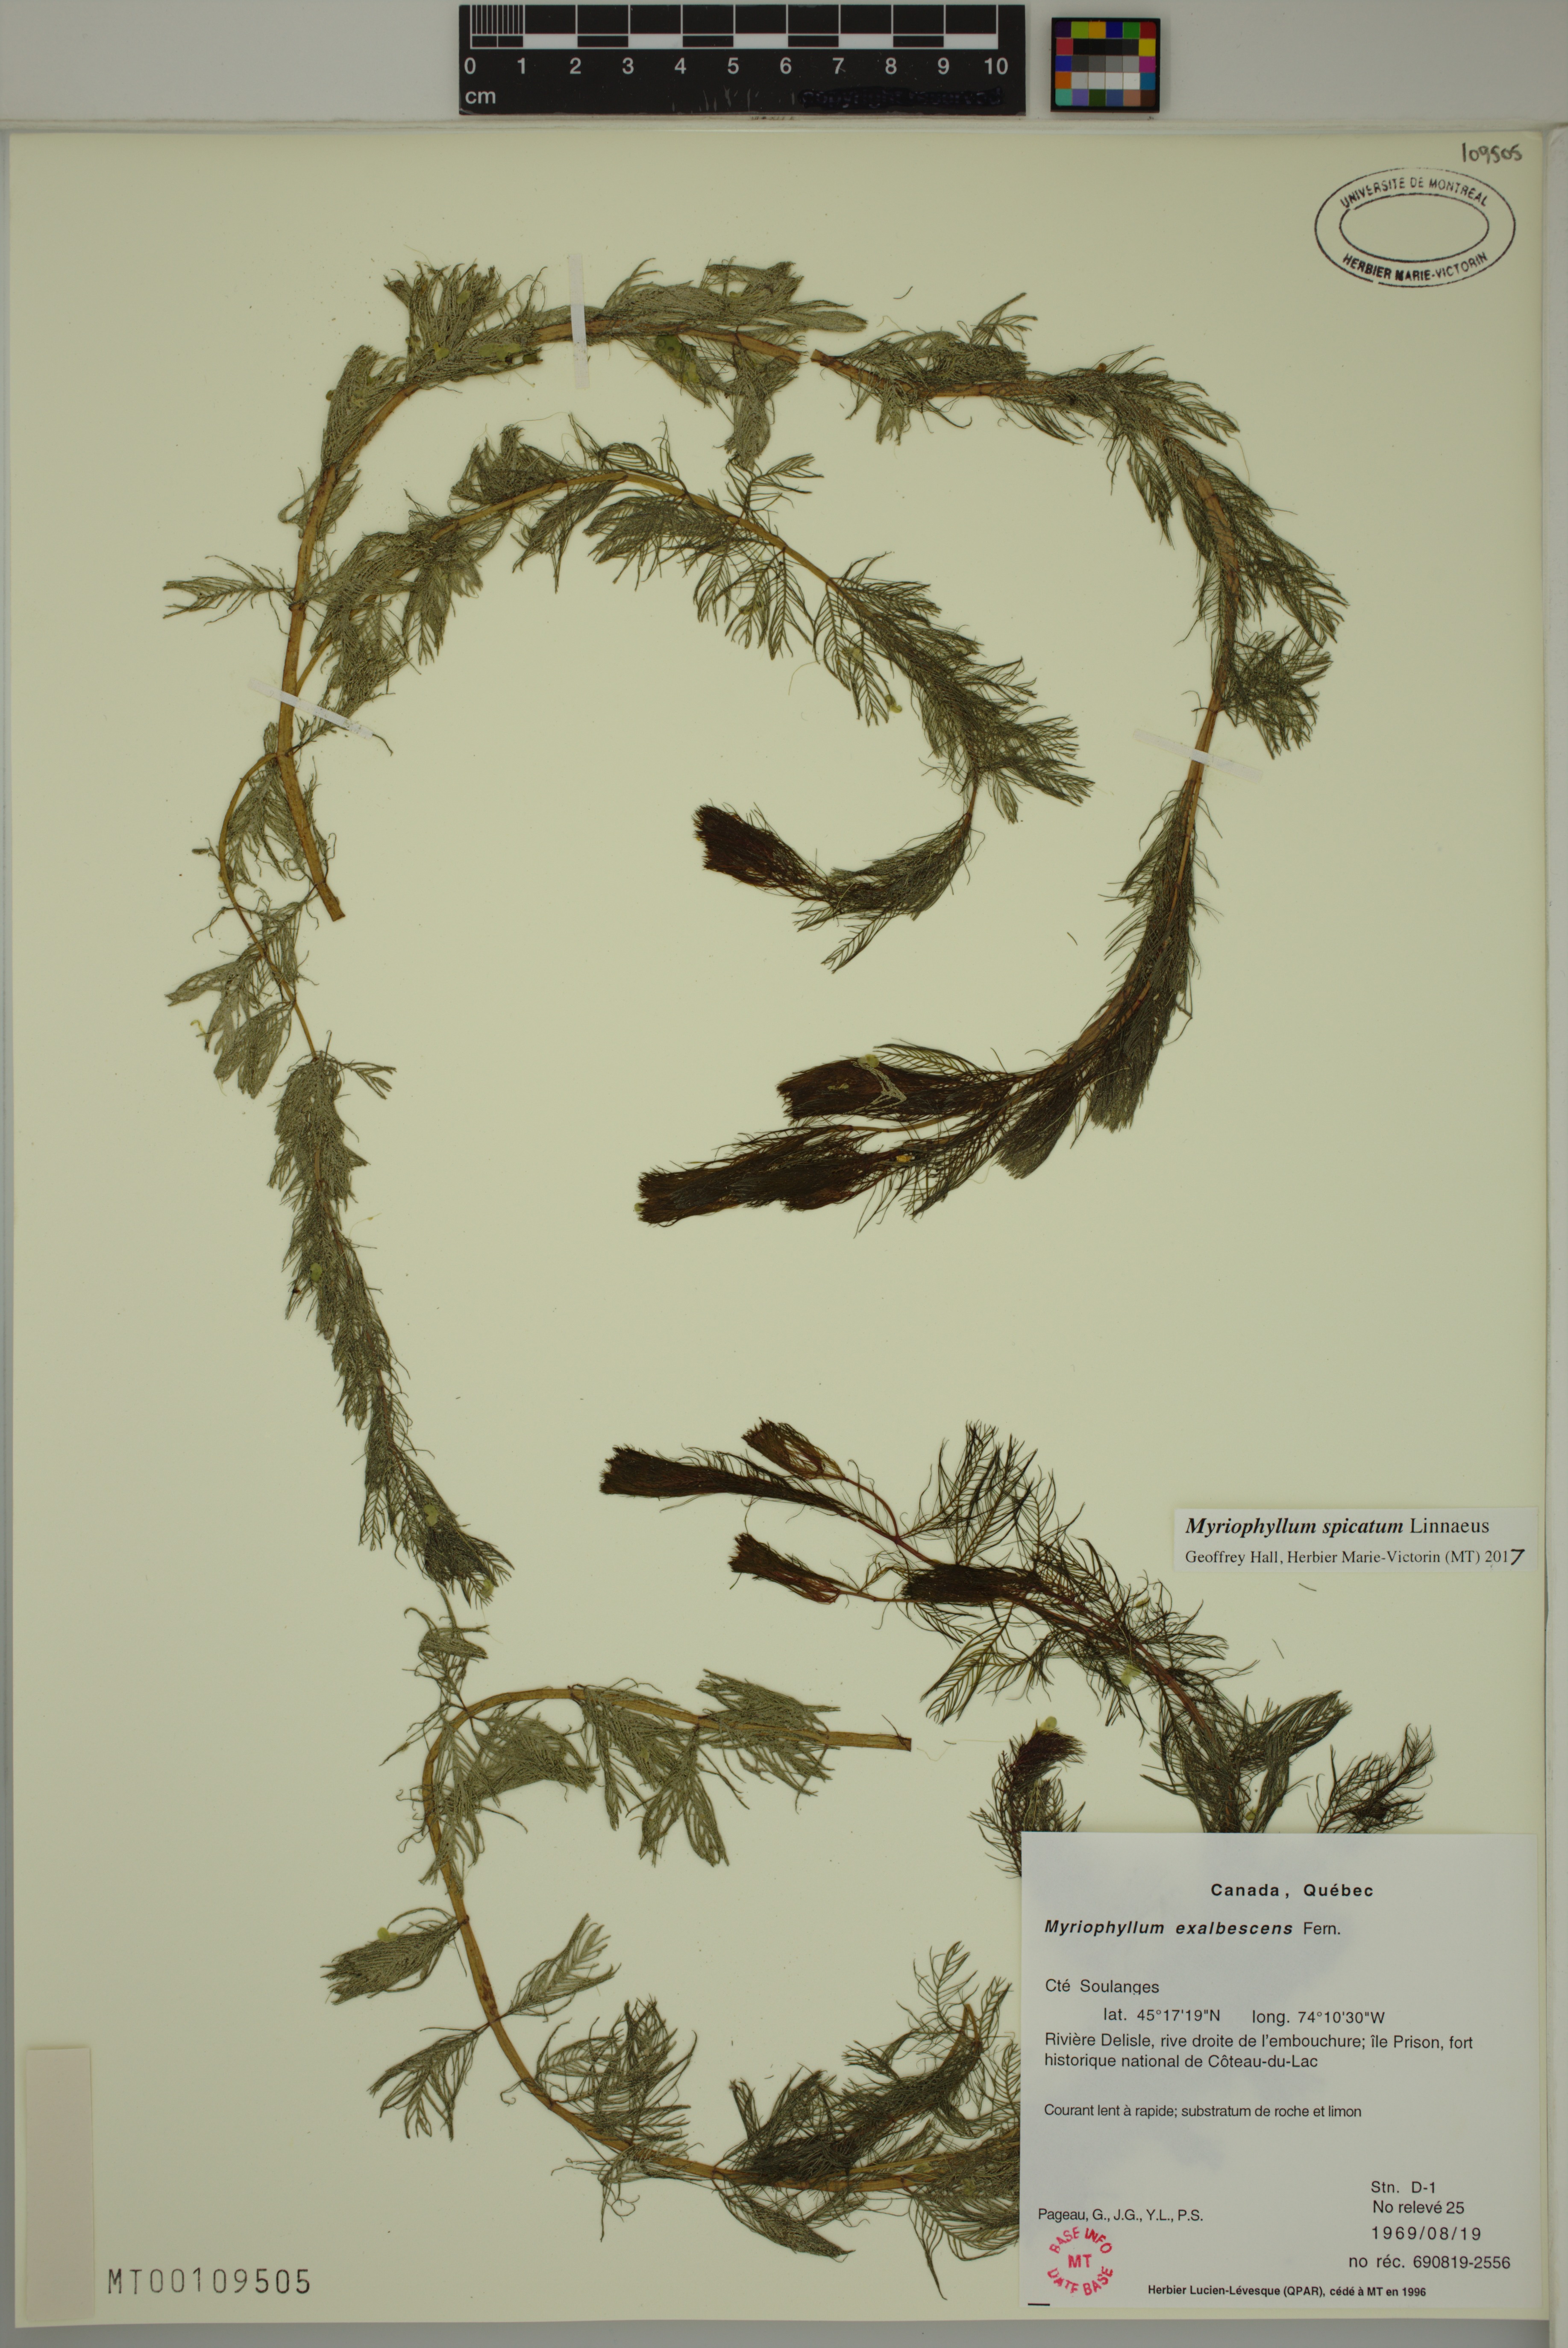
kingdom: Plantae
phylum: Tracheophyta
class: Magnoliopsida
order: Saxifragales
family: Haloragaceae
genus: Myriophyllum
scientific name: Myriophyllum spicatum
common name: Spiked water-milfoil
